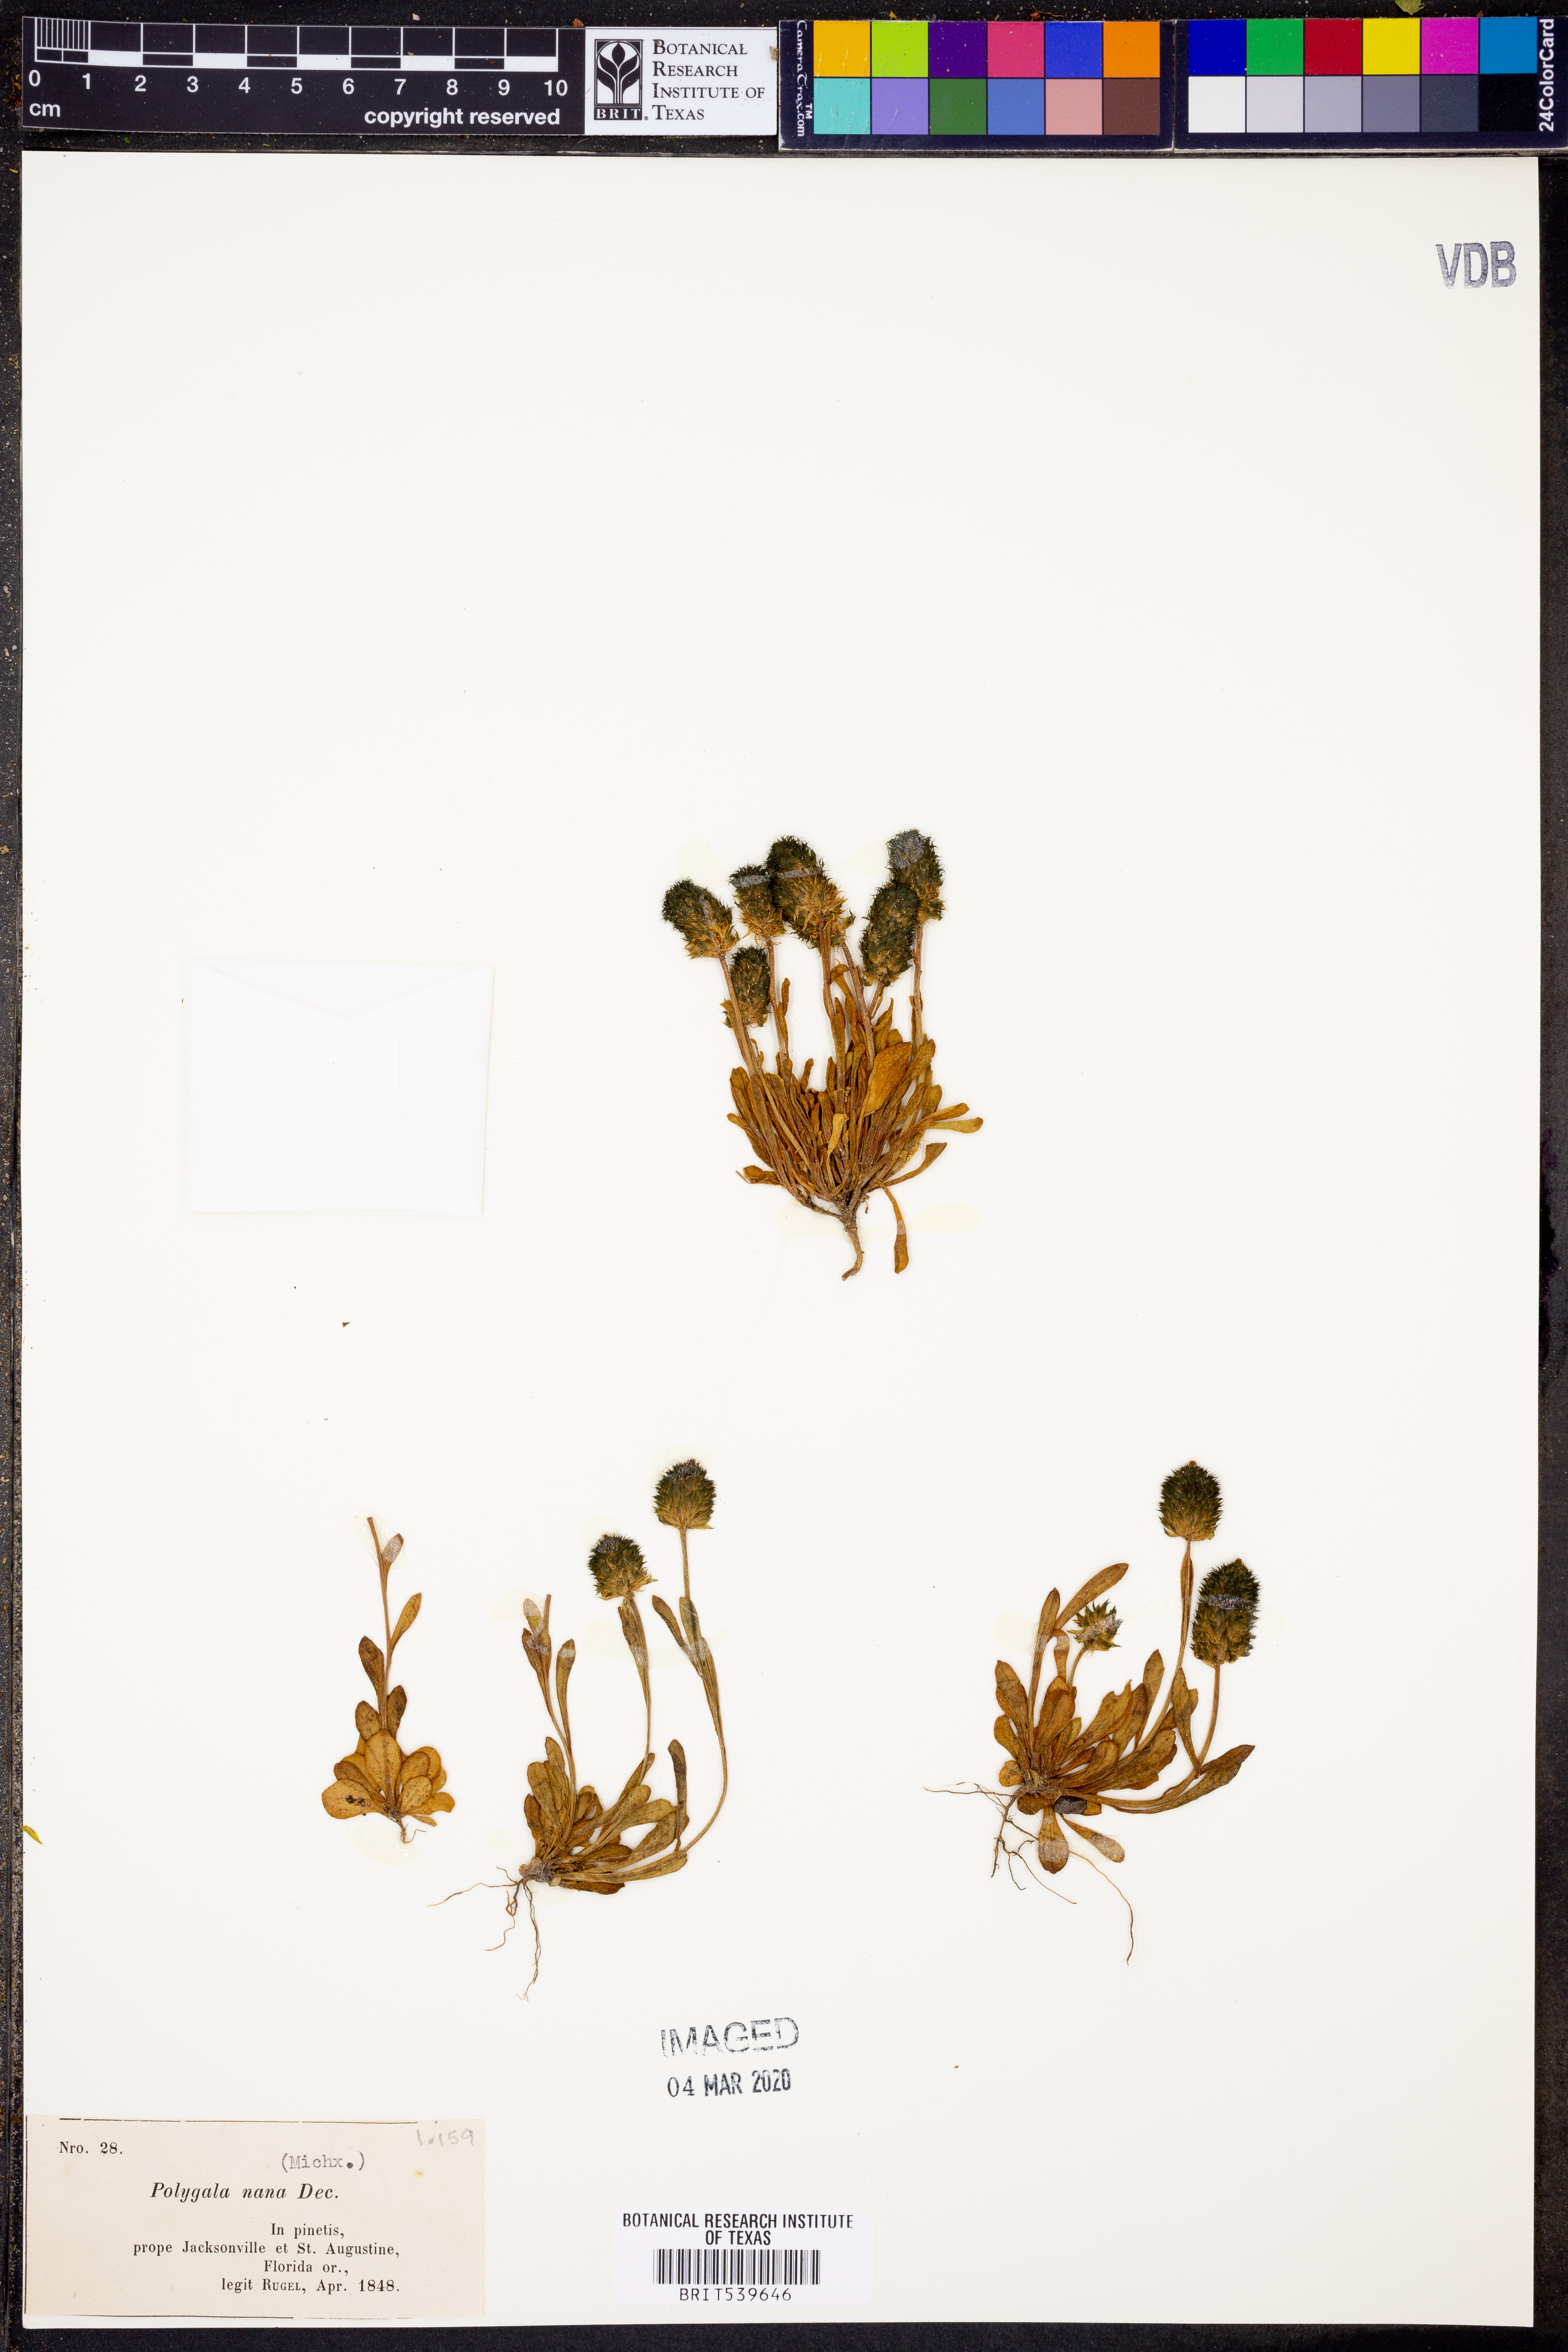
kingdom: Plantae
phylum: Tracheophyta
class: Magnoliopsida
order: Fabales
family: Polygalaceae
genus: Polygala
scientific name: Polygala nana
